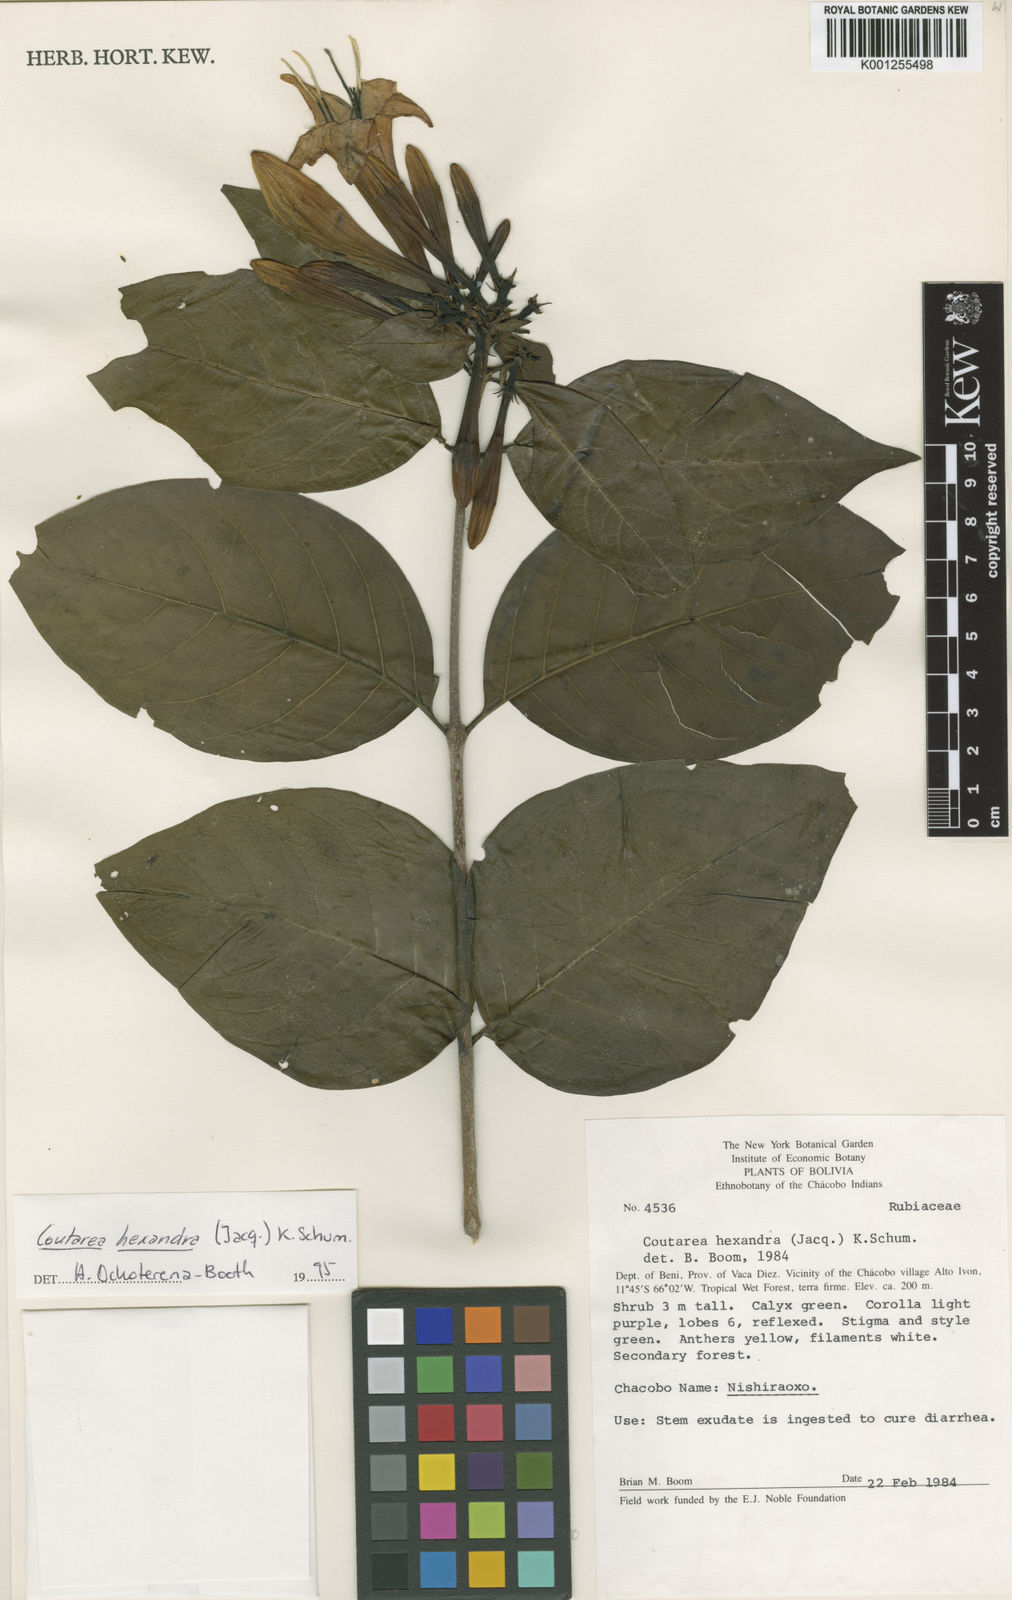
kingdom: Plantae
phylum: Tracheophyta
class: Magnoliopsida
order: Gentianales
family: Rubiaceae
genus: Coutarea
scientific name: Coutarea hexandra
